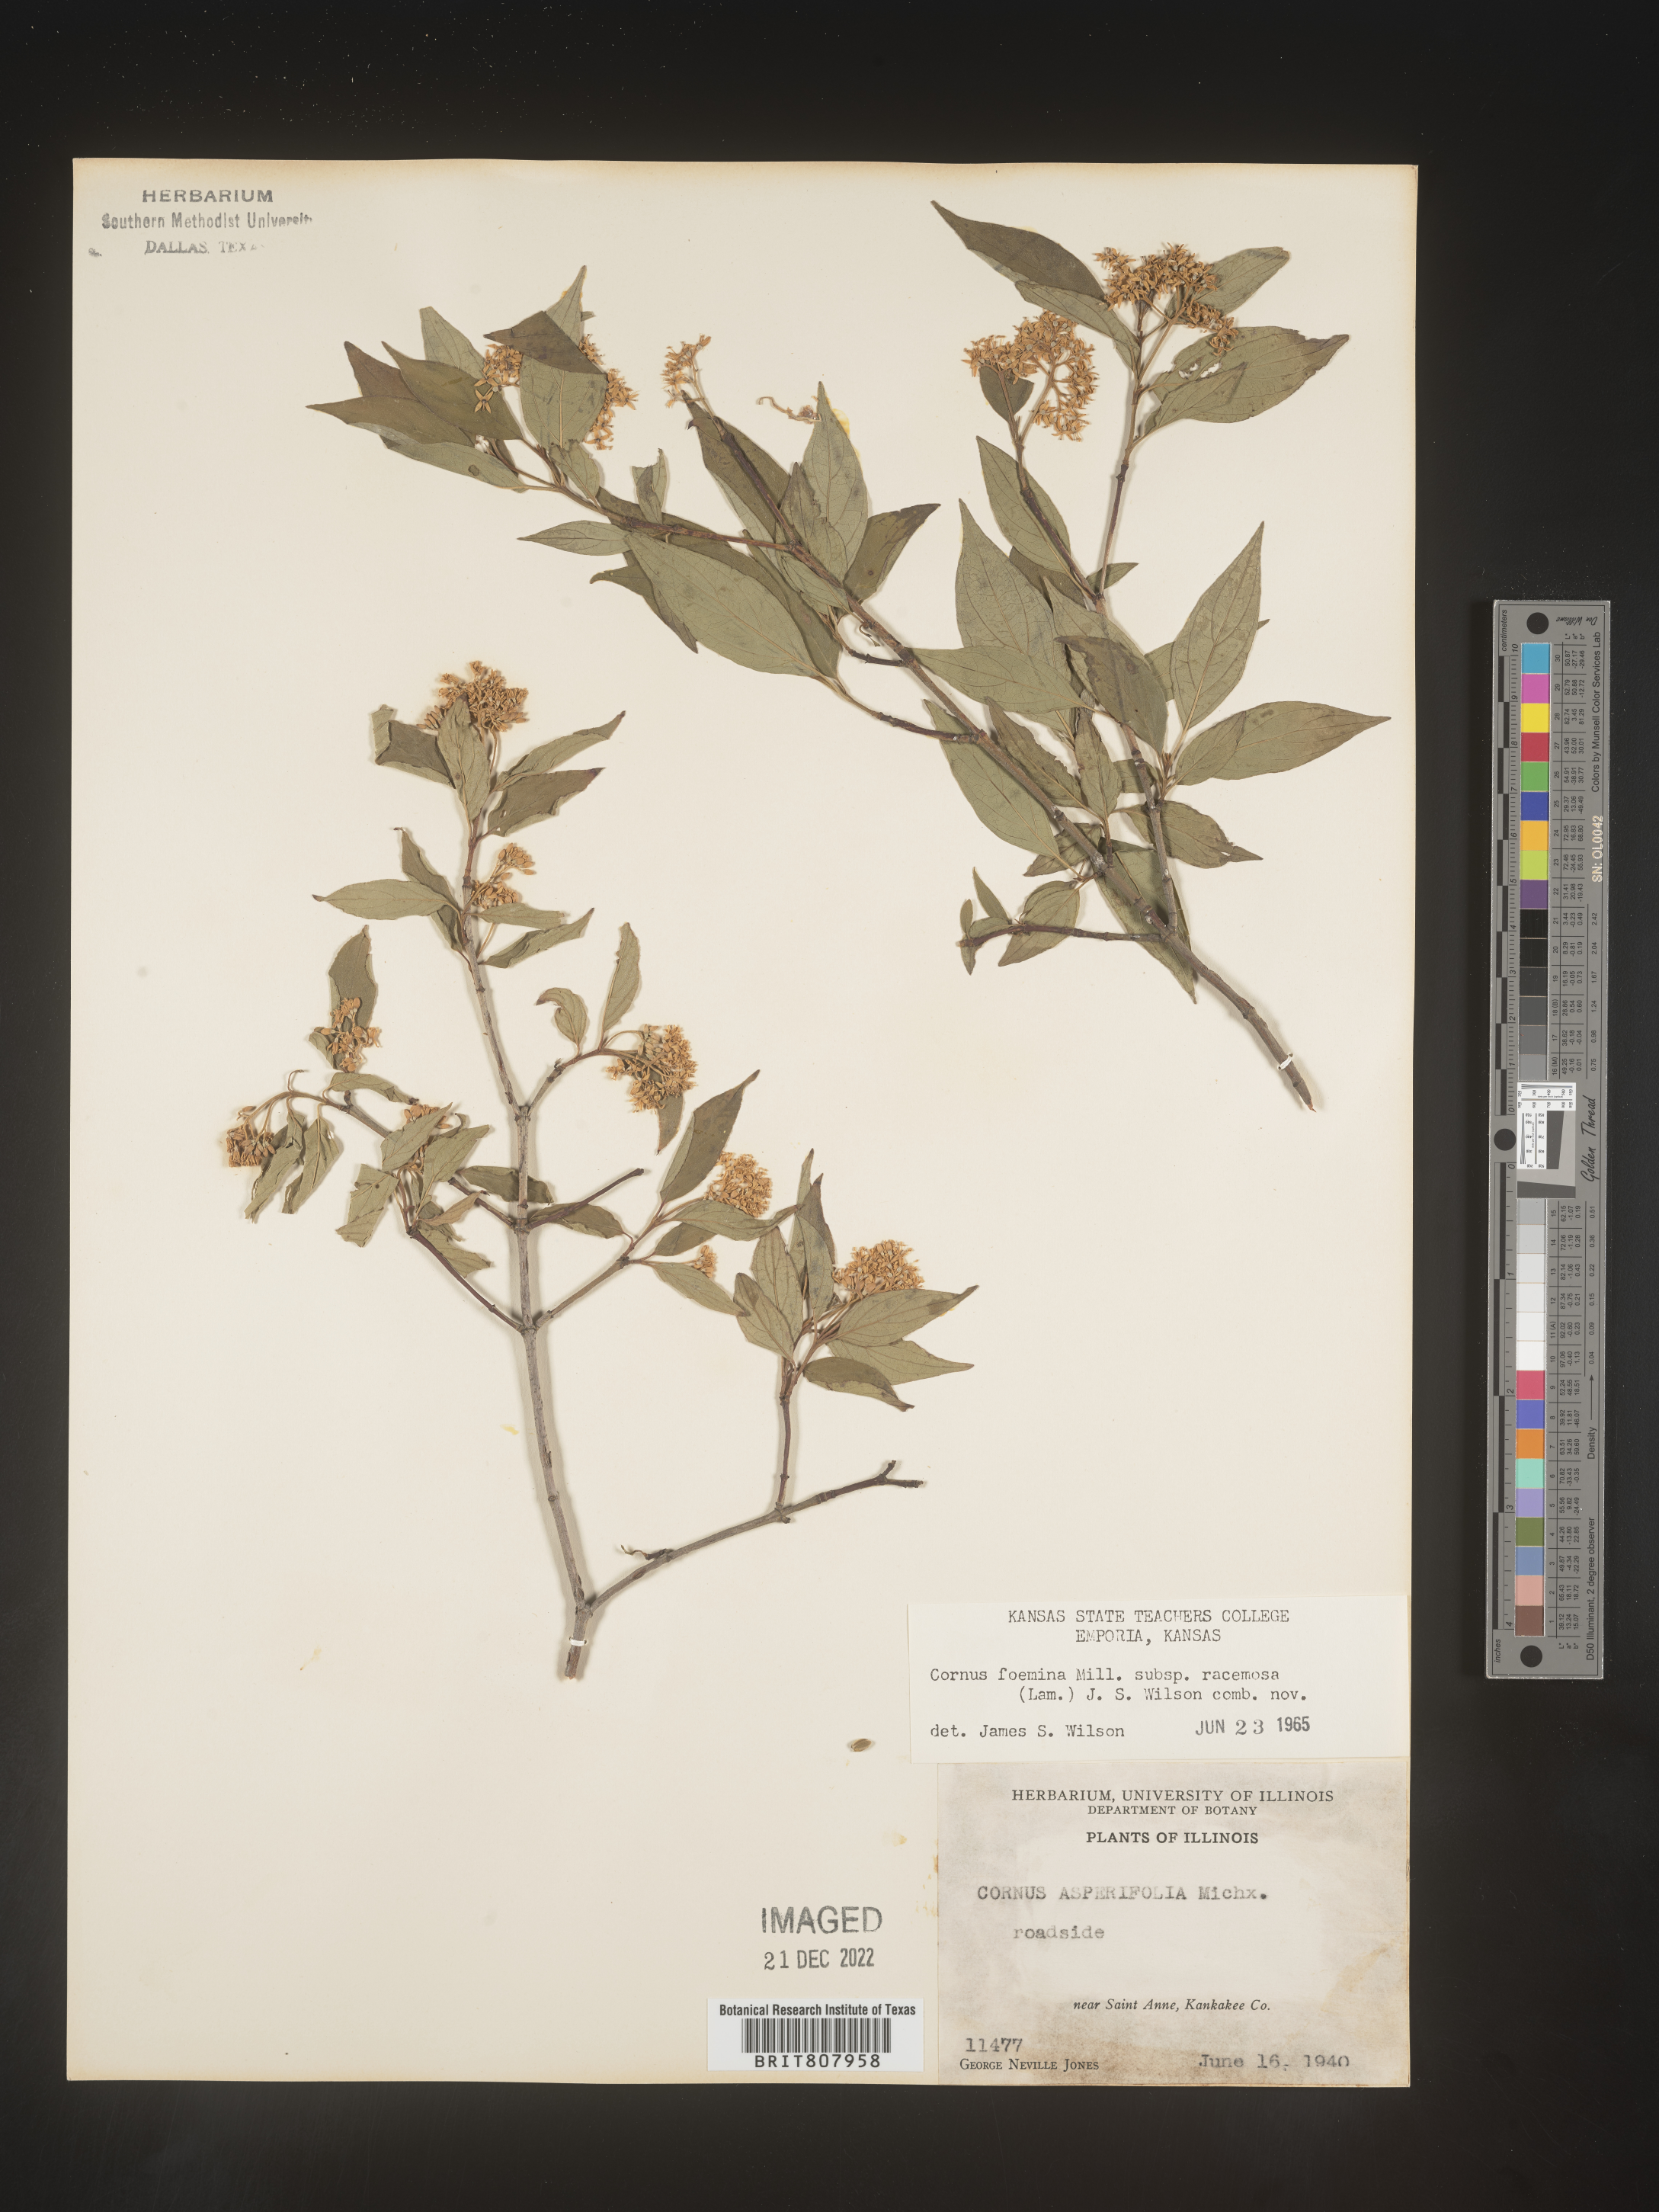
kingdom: Plantae
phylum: Tracheophyta
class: Magnoliopsida
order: Cornales
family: Cornaceae
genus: Cornus
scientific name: Cornus racemosa
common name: Panicled dogwood
